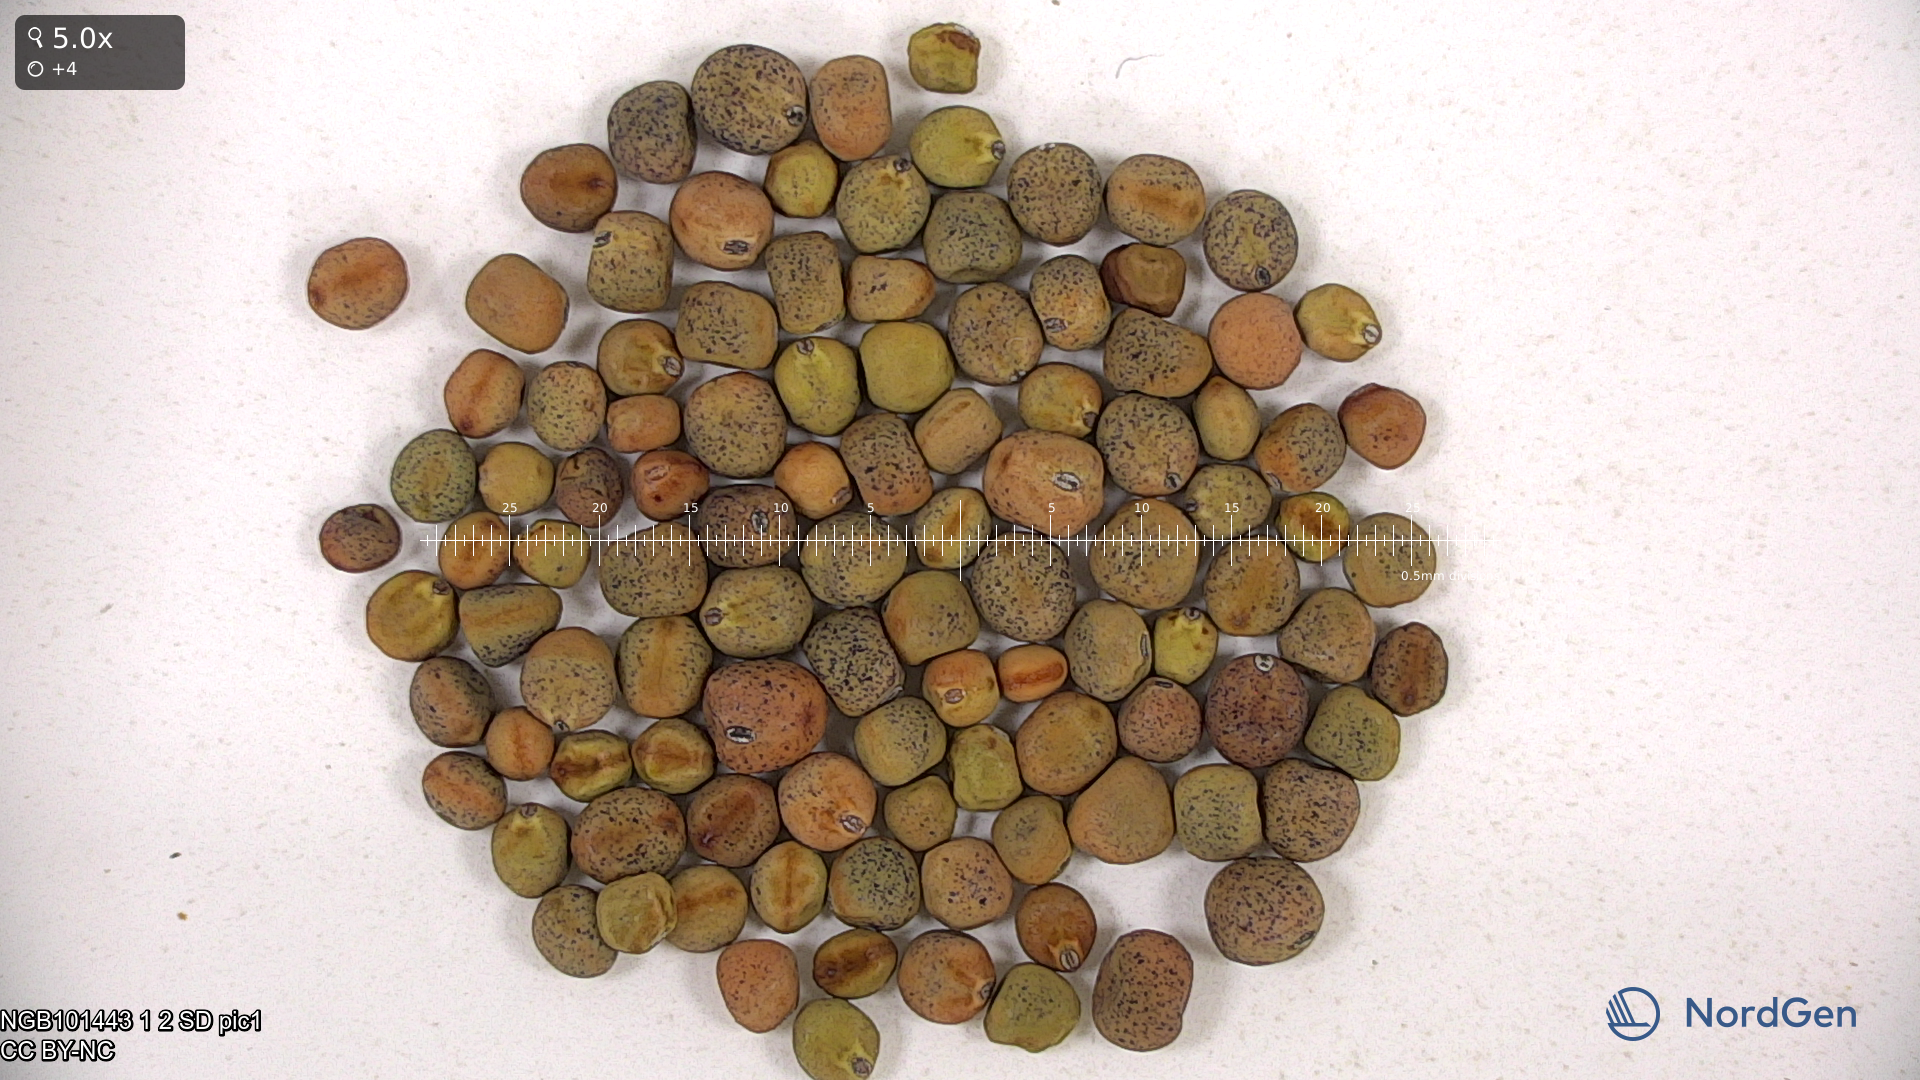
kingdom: Plantae
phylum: Tracheophyta
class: Magnoliopsida
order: Fabales
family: Fabaceae
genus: Lathyrus
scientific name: Lathyrus oleraceus
